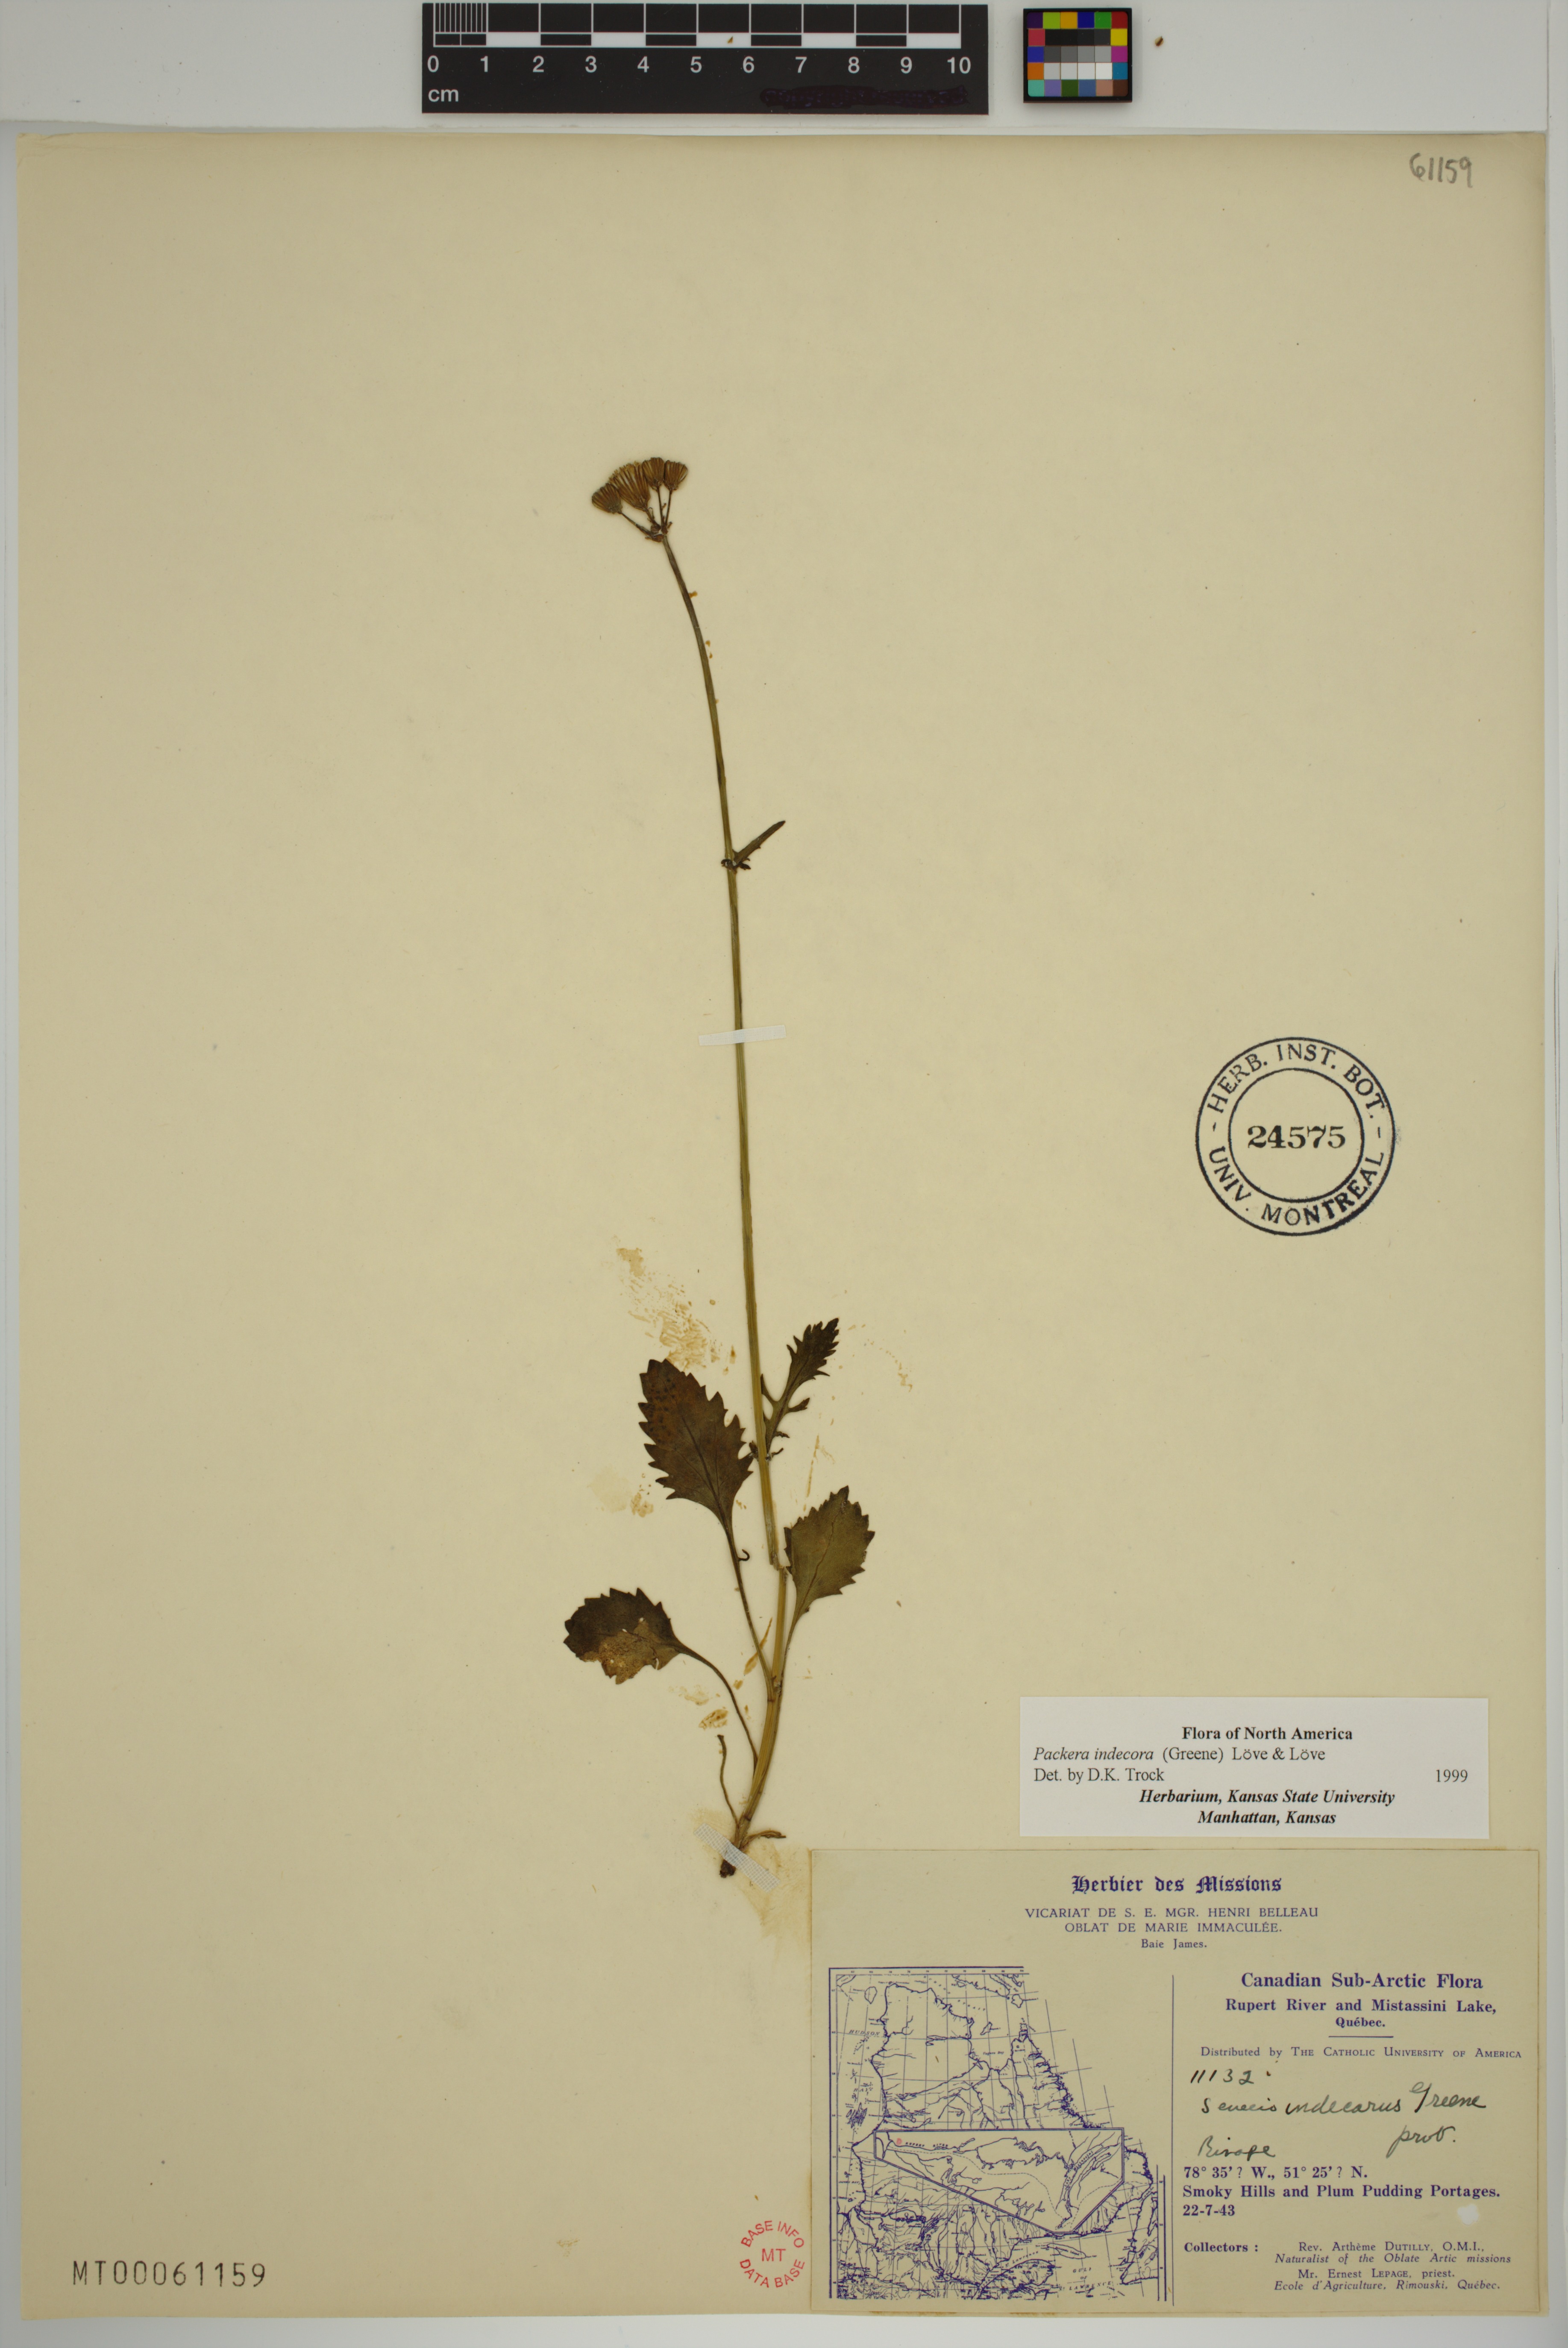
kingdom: Plantae
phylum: Tracheophyta
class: Magnoliopsida
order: Asterales
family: Asteraceae
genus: Packera
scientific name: Packera indecora
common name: Elegant groundsel
